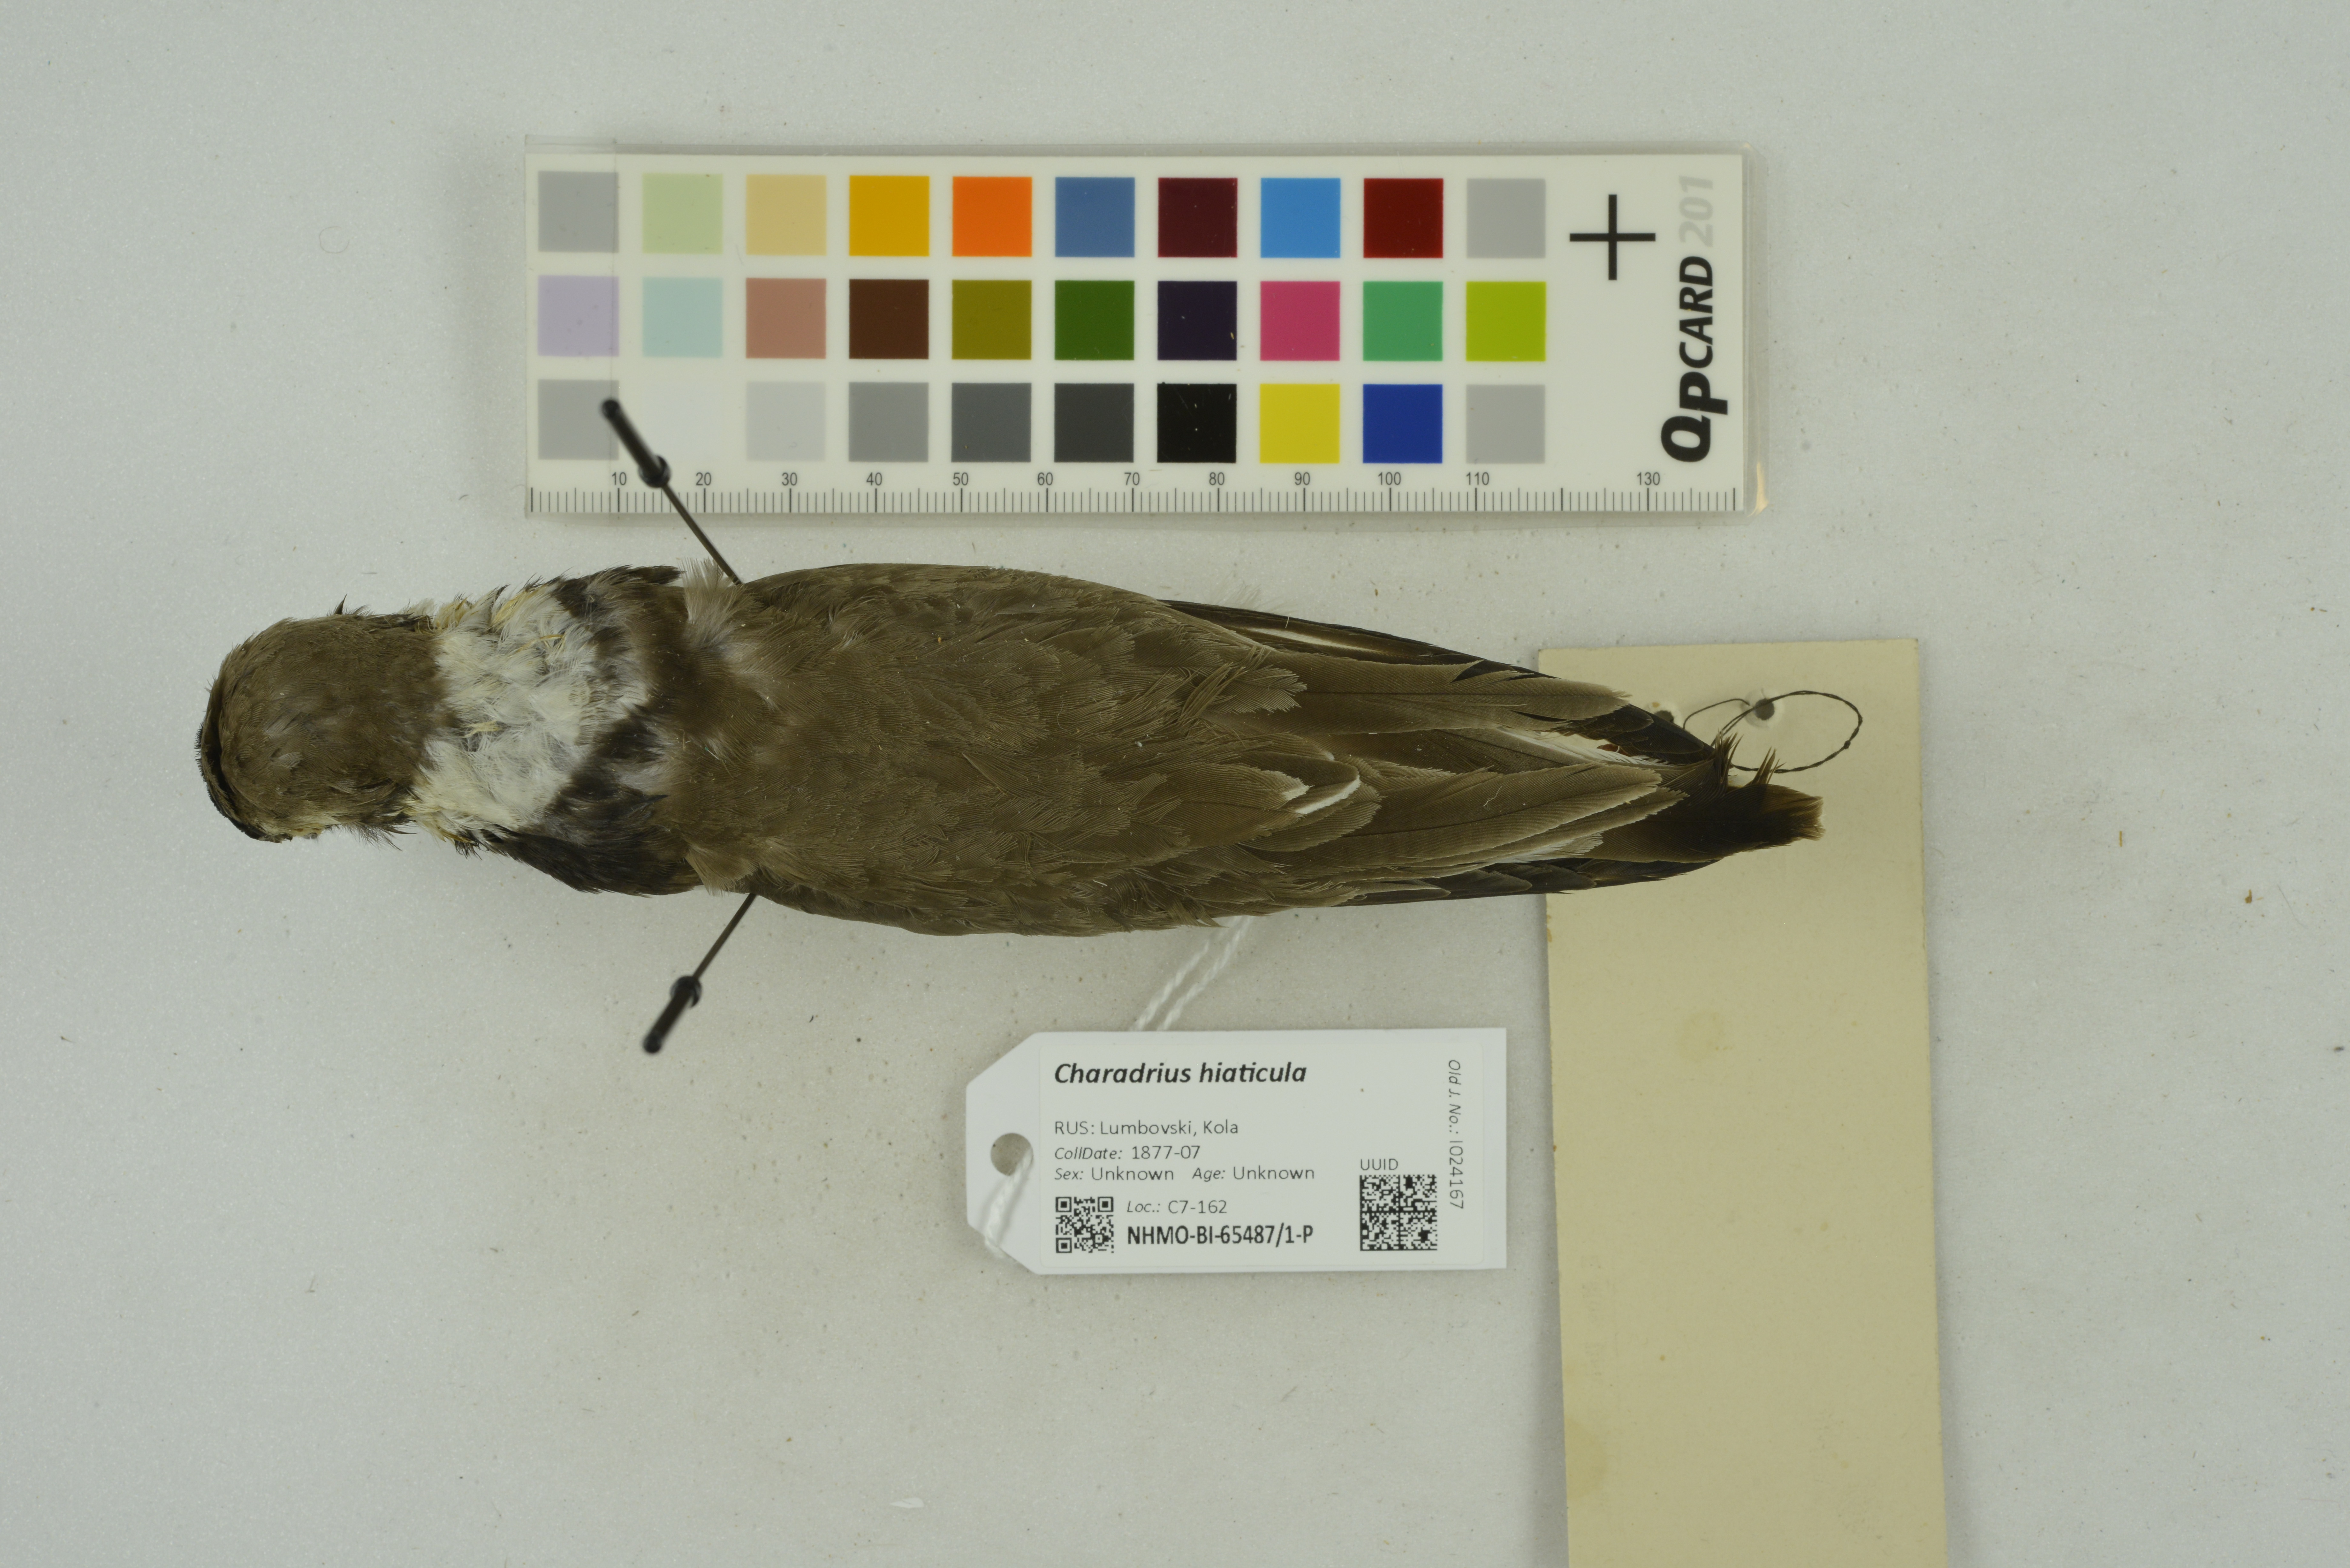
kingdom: Animalia
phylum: Chordata
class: Aves
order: Charadriiformes
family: Charadriidae
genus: Charadrius
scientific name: Charadrius hiaticula
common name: Common ringed plover
